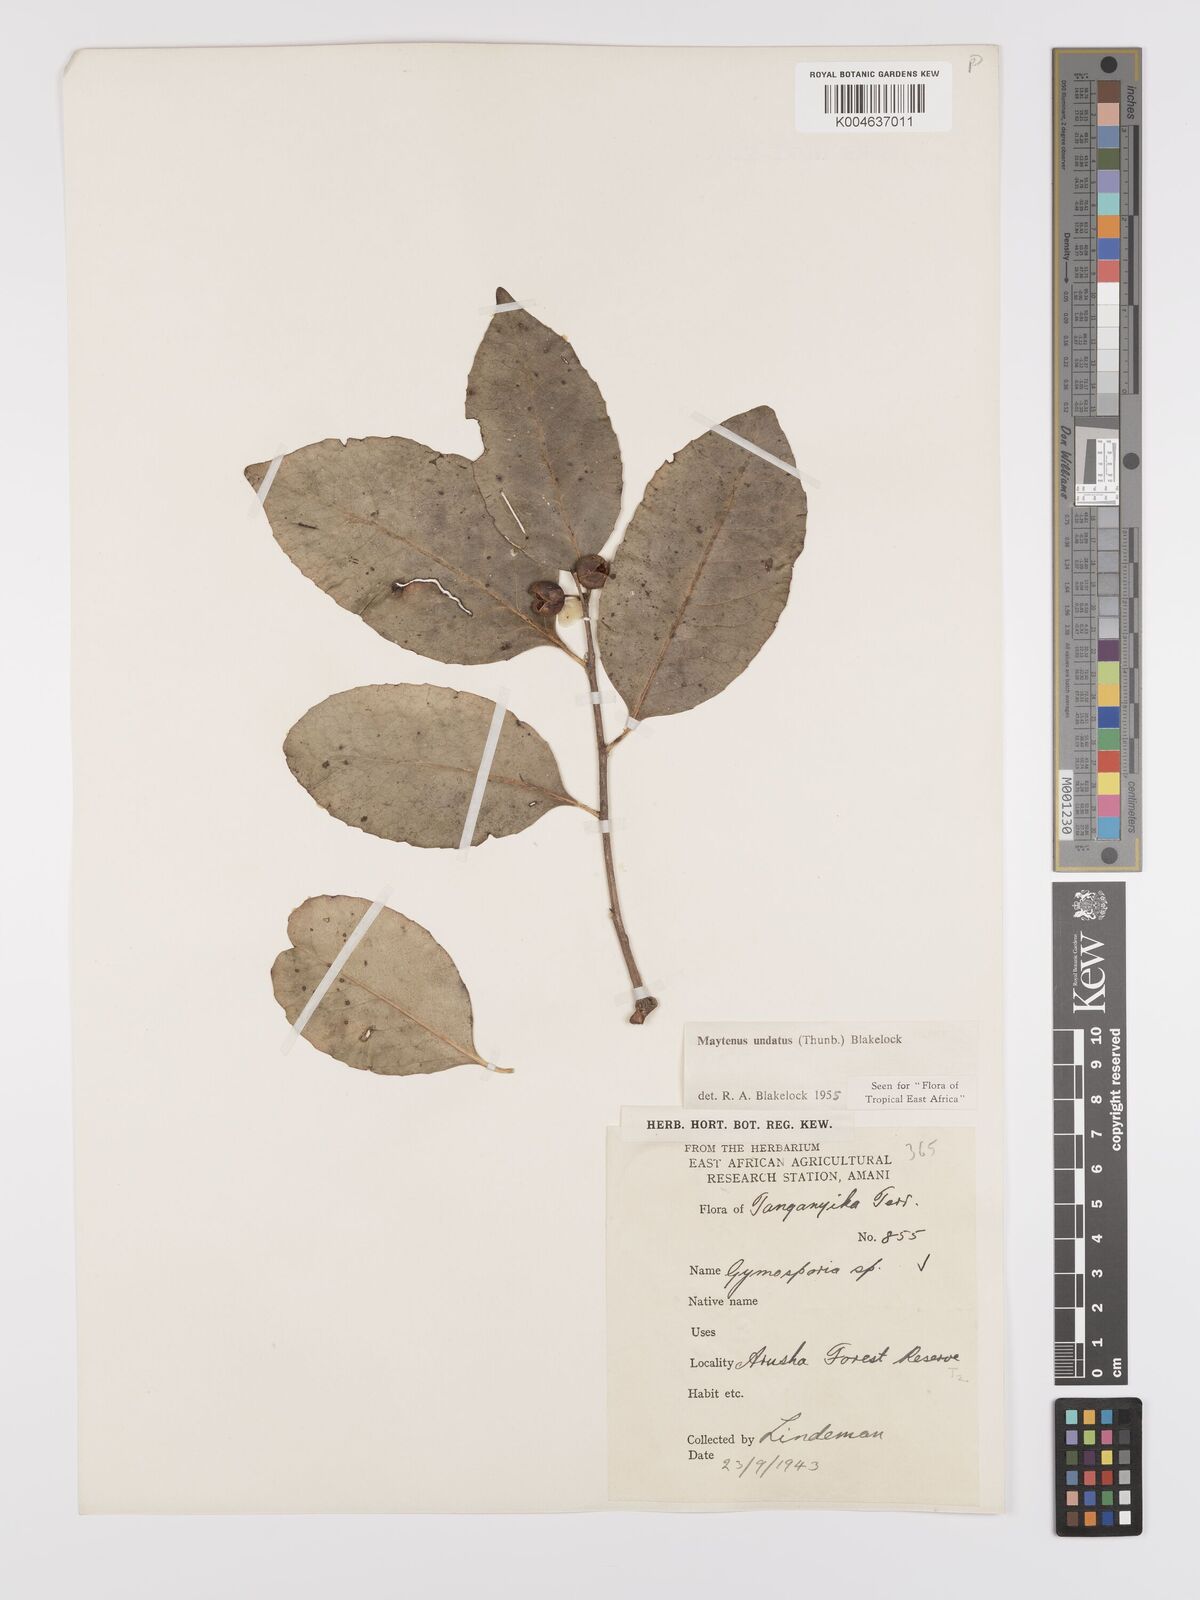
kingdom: Plantae
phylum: Tracheophyta
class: Magnoliopsida
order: Celastrales
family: Celastraceae
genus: Gymnosporia
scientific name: Gymnosporia undata
